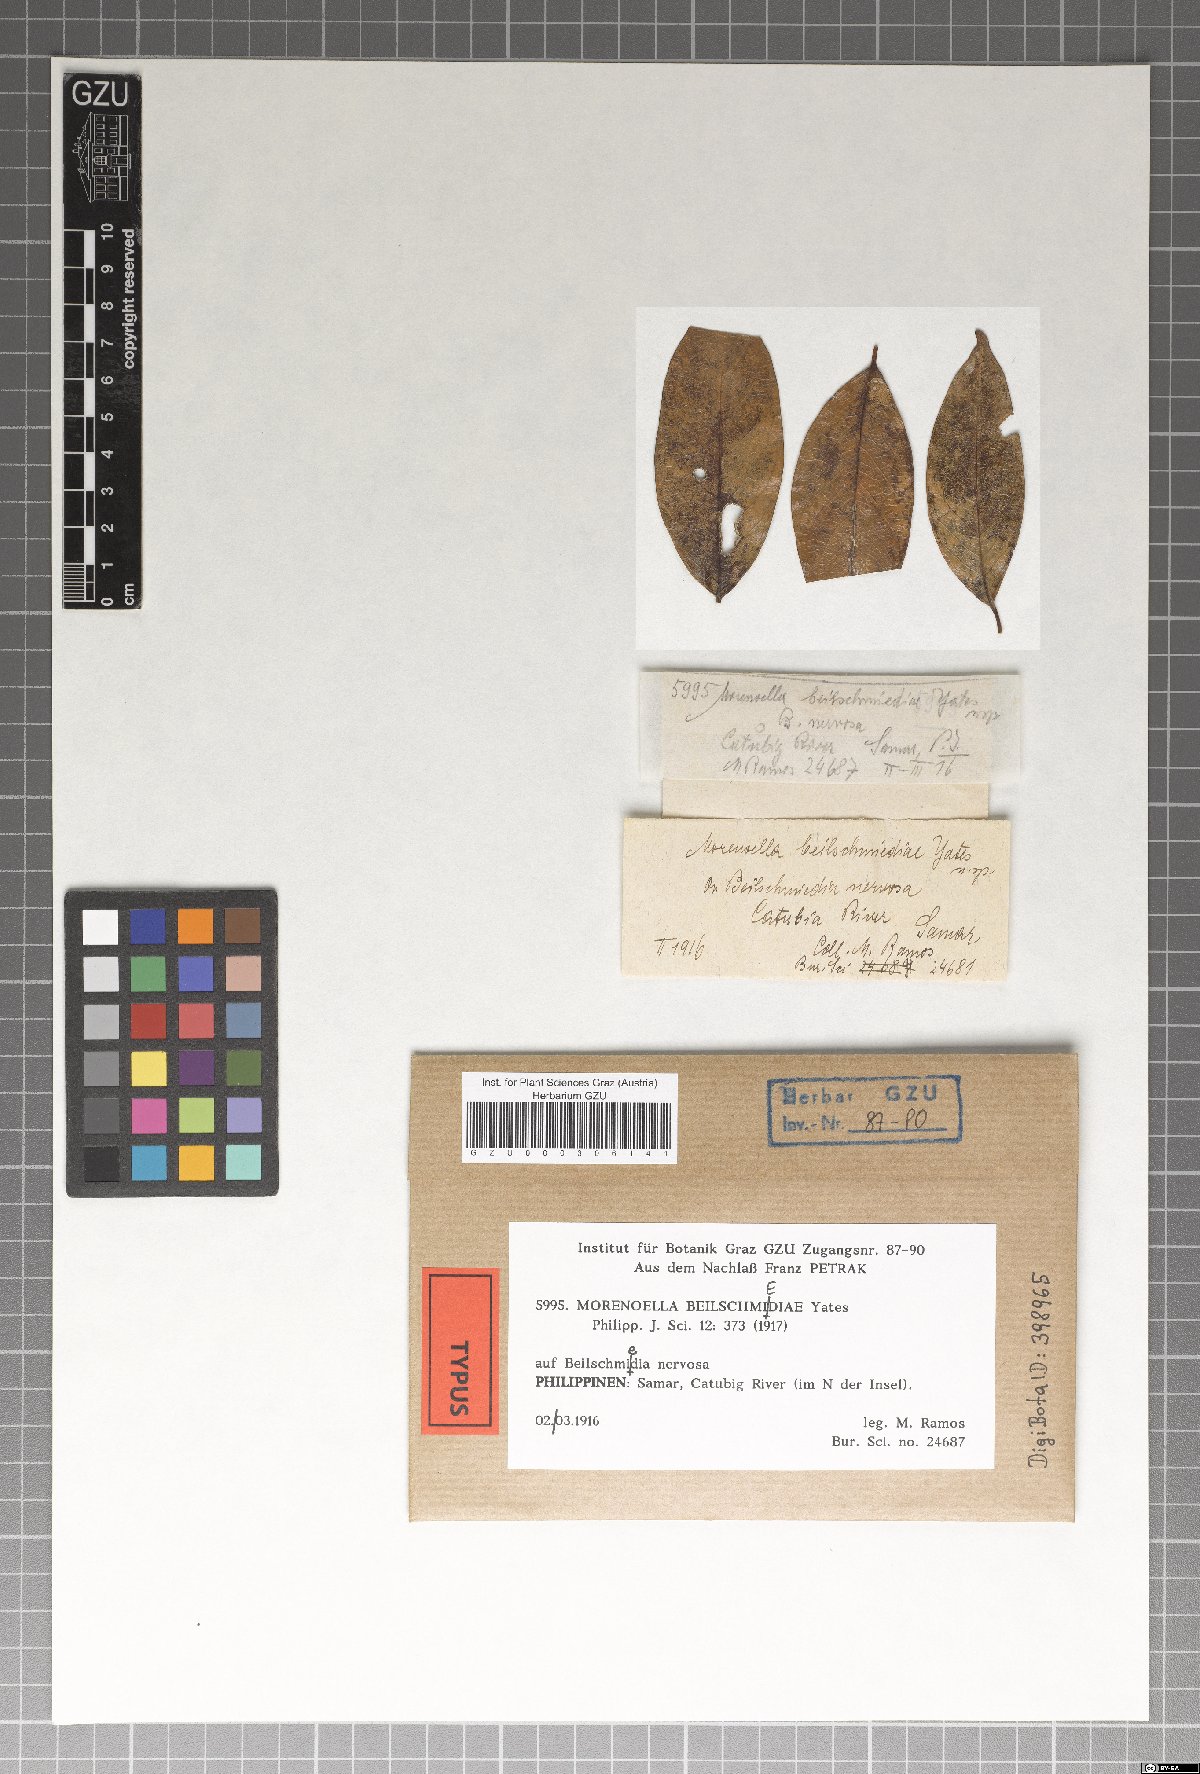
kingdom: Fungi
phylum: Ascomycota
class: Dothideomycetes
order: Asterinales
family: Asterinaceae
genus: Lembosia
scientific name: Lembosia beilschmiediae
